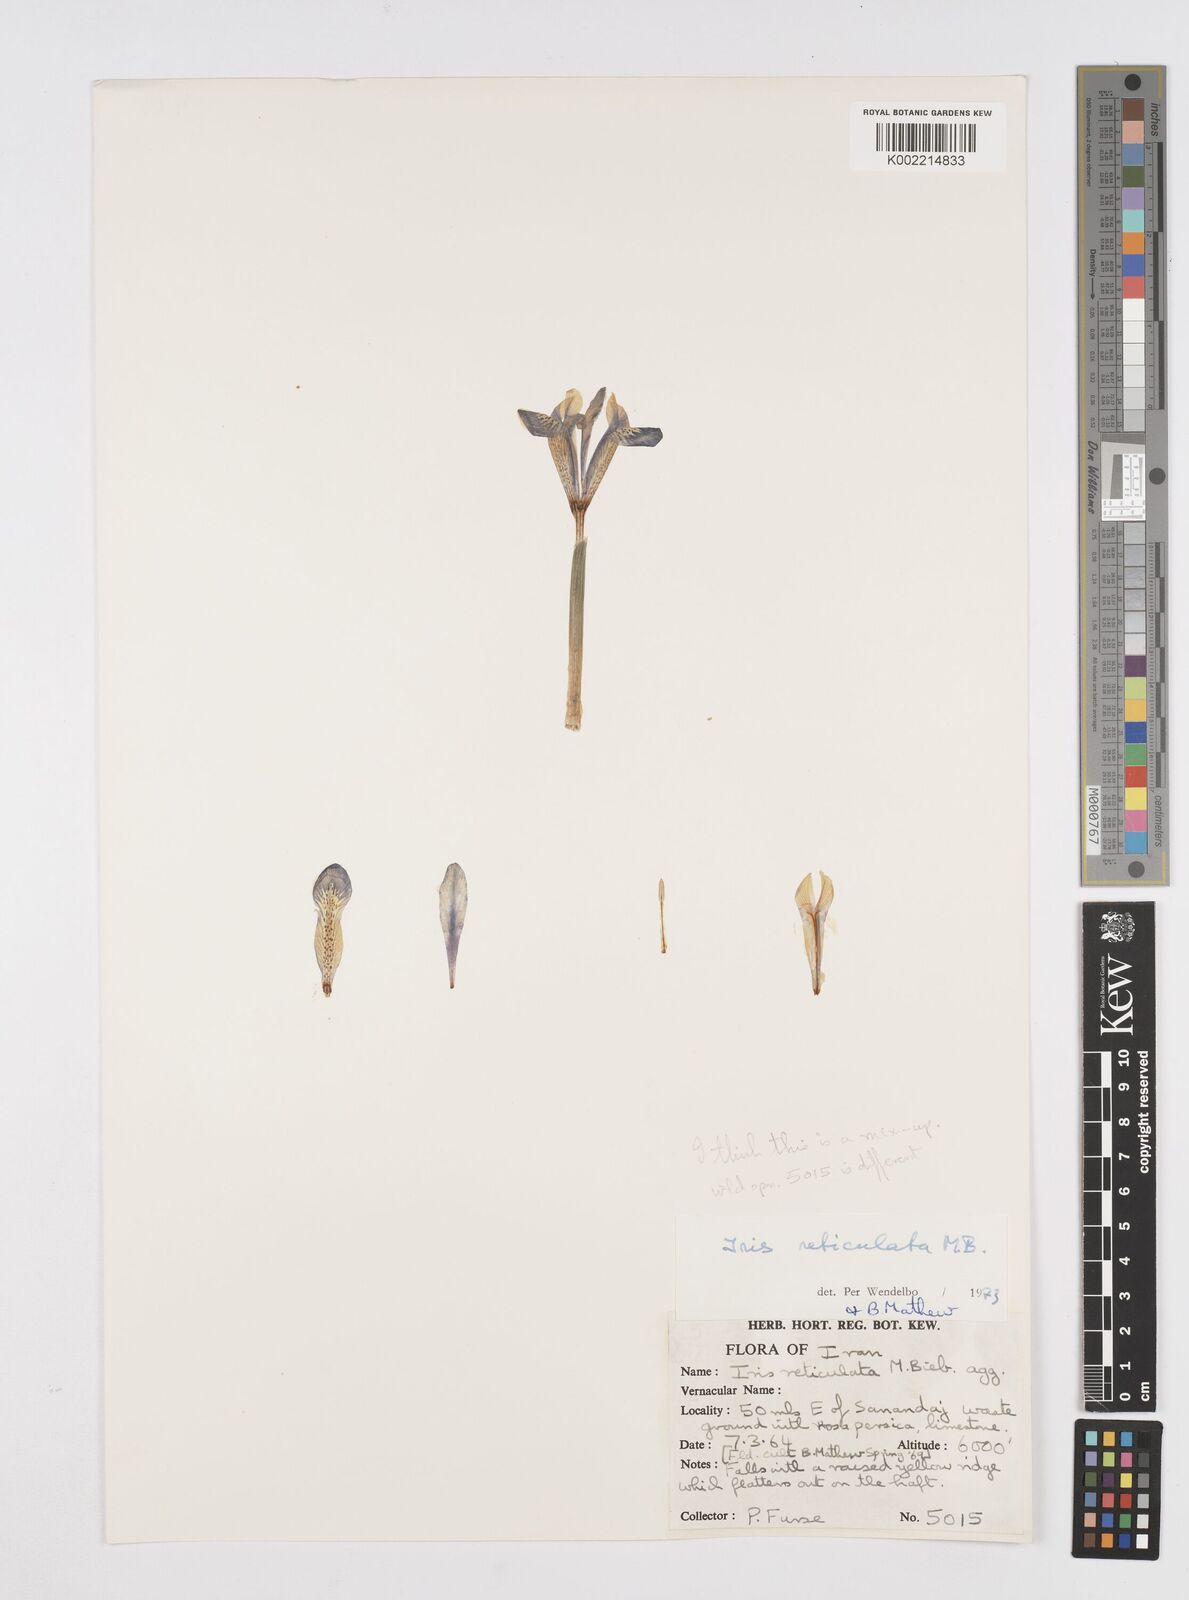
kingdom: Plantae
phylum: Tracheophyta
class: Liliopsida
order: Asparagales
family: Iridaceae
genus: Iris
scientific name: Iris reticulata
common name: Netted iris
